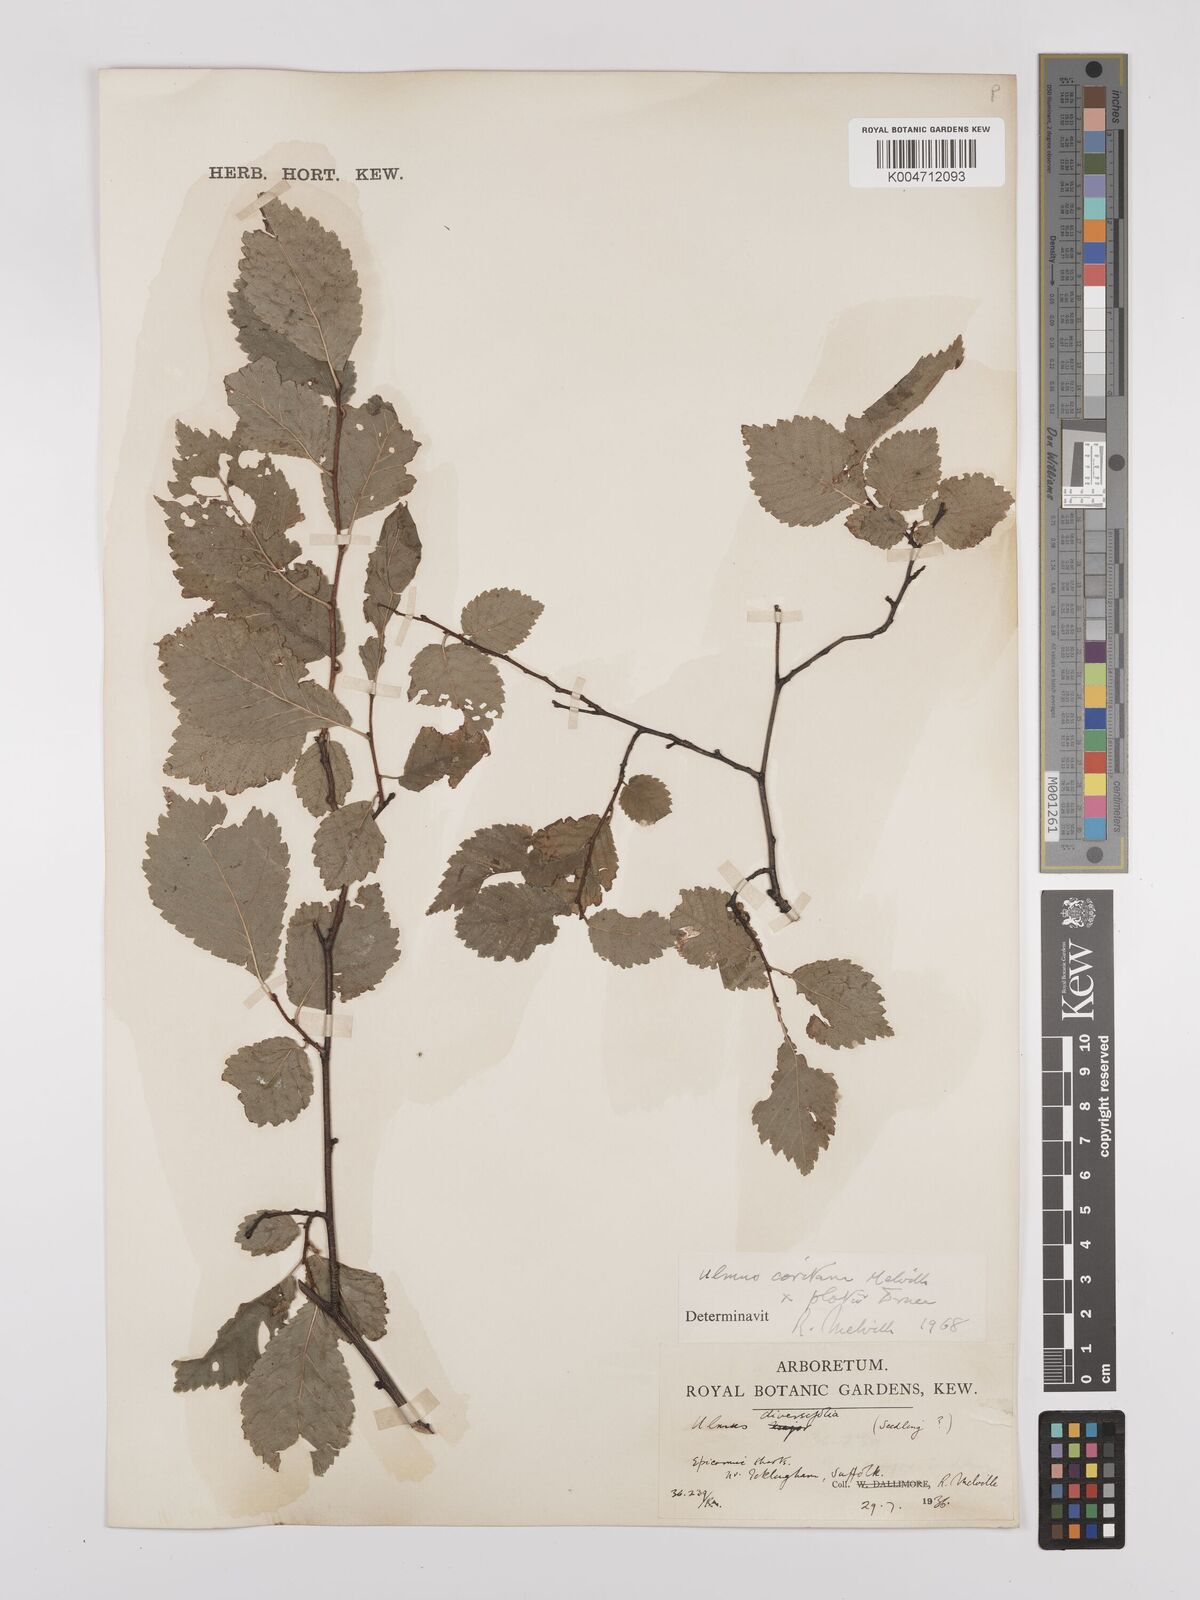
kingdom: Plantae
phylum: Tracheophyta
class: Magnoliopsida
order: Rosales
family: Ulmaceae
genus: Ulmus
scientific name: Ulmus minor
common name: Small-leaved elm
